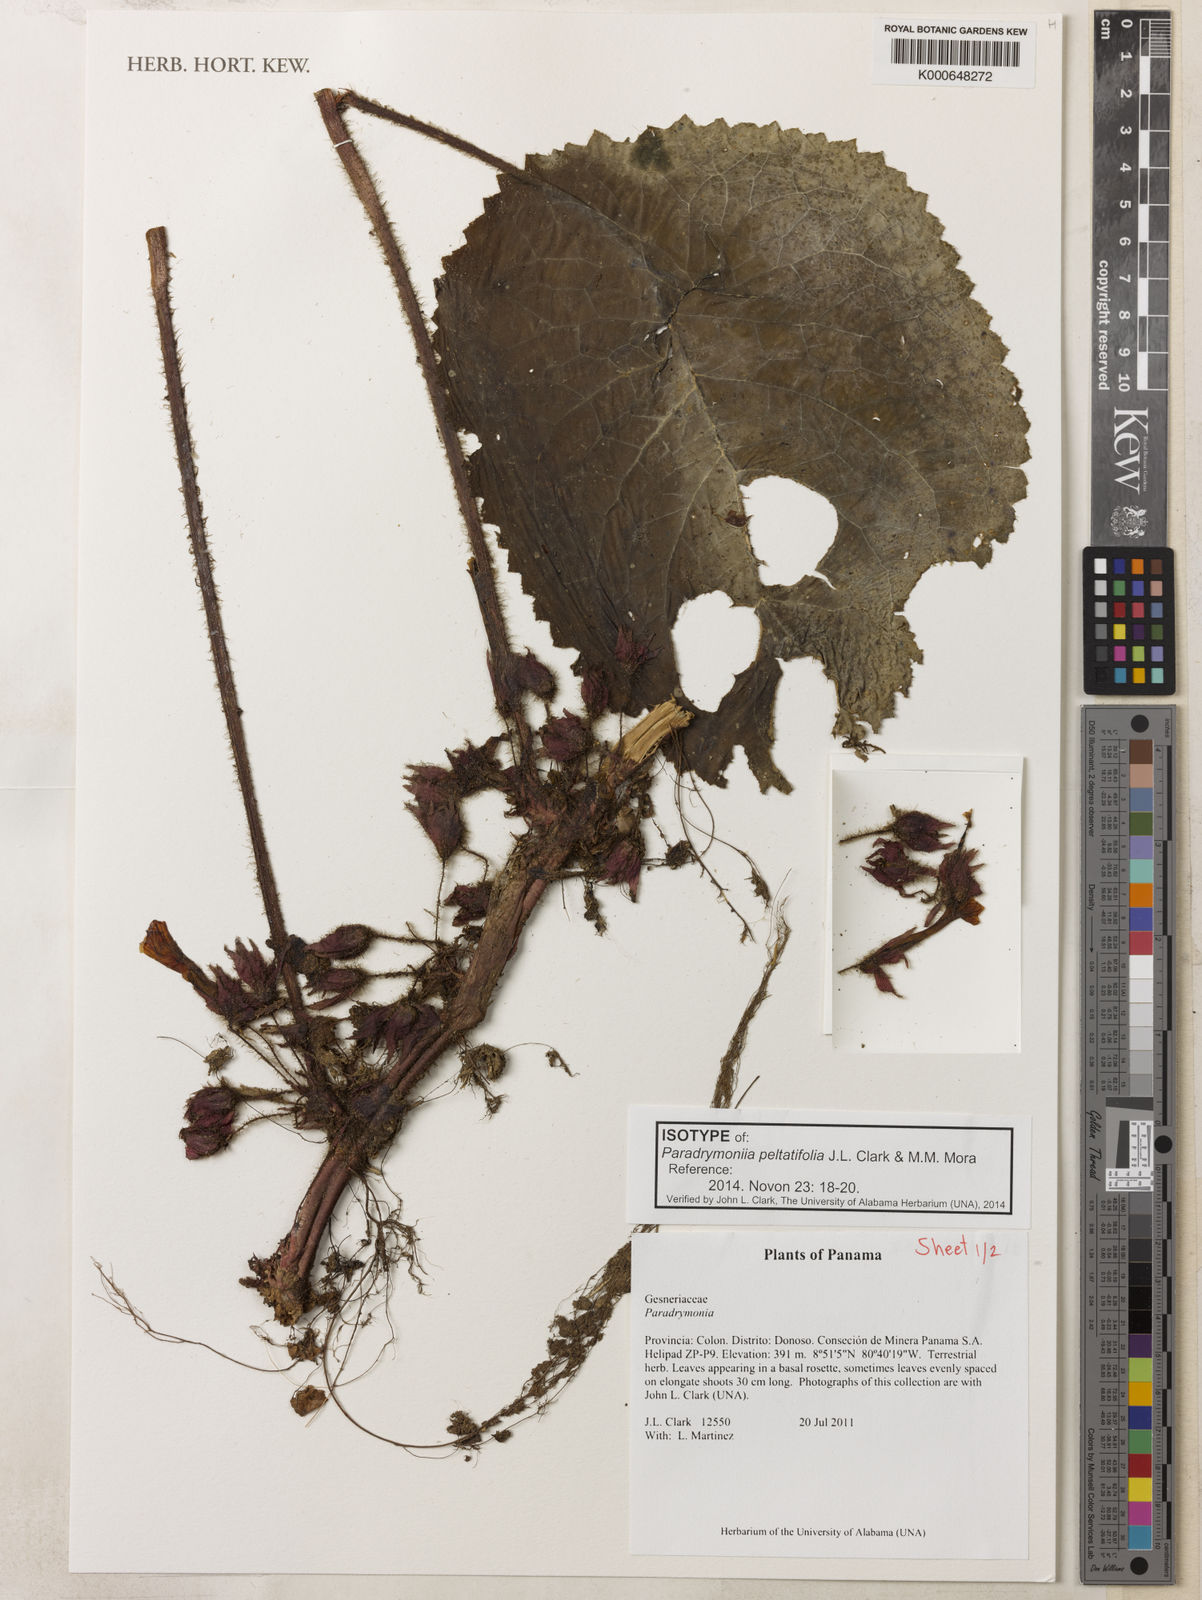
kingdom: Plantae
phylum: Tracheophyta
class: Magnoliopsida
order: Lamiales
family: Gesneriaceae
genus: Trichodrymonia
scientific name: Trichodrymonia peltatifolia
